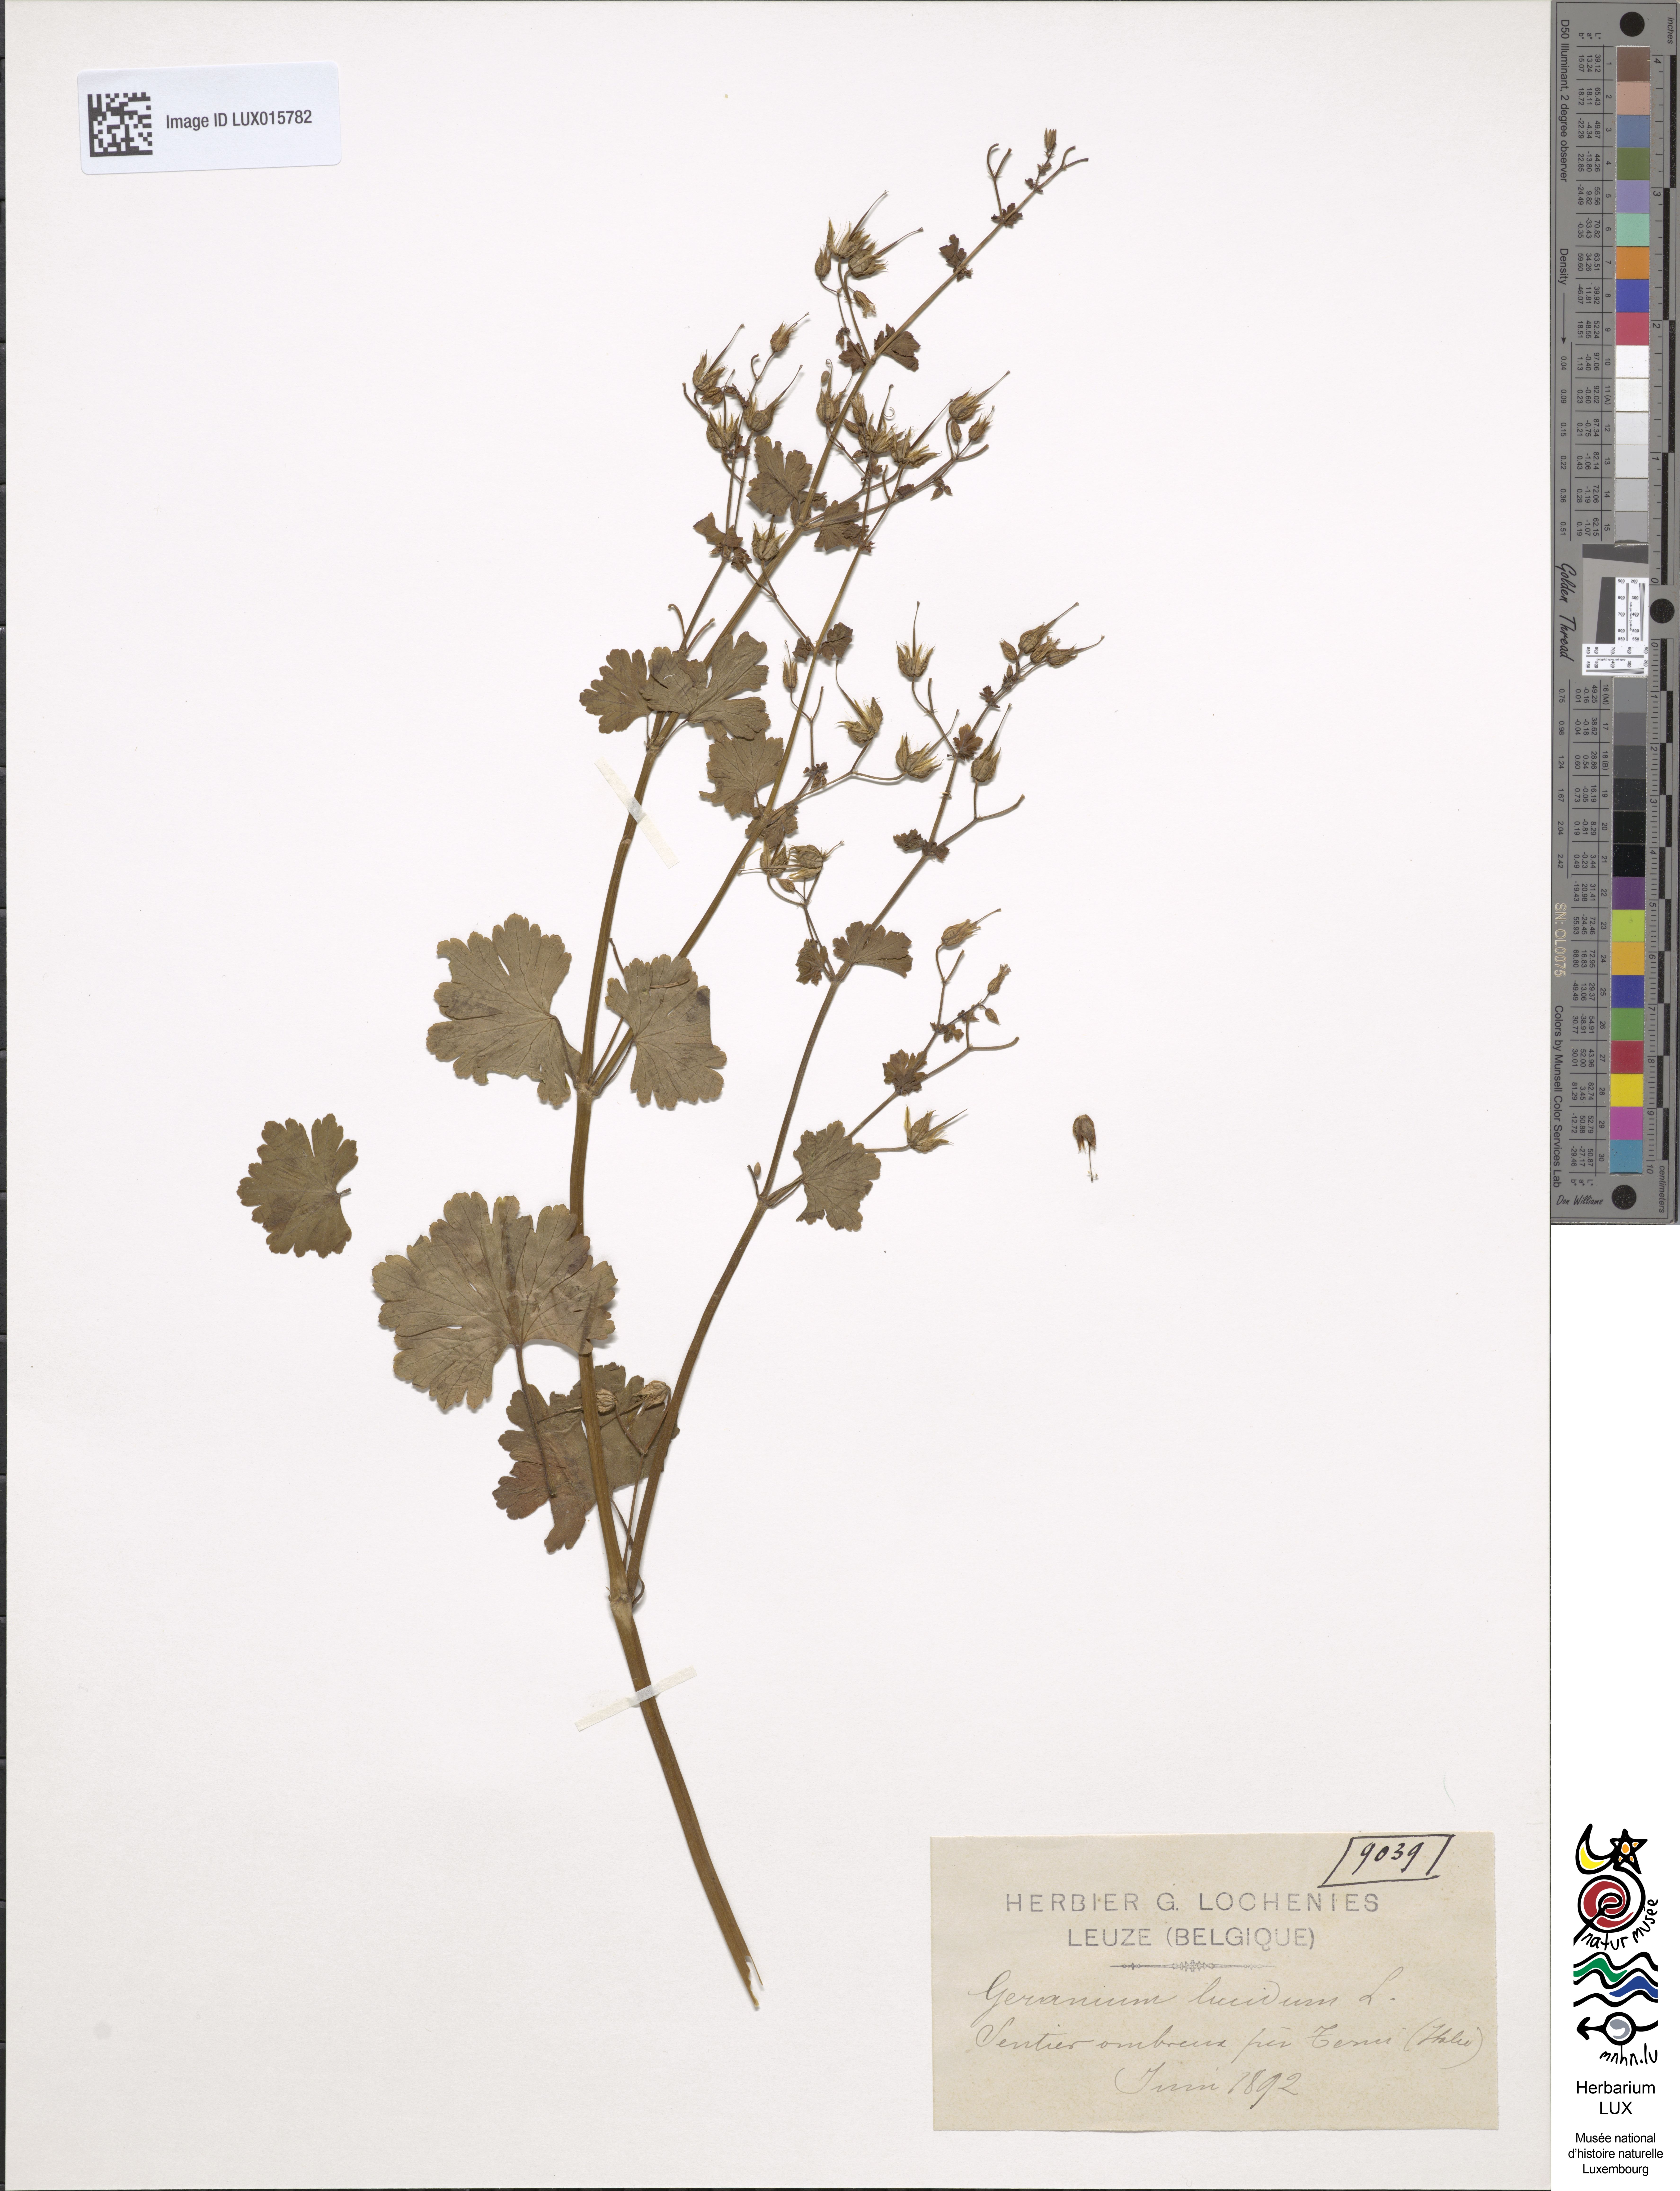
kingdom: Plantae
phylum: Tracheophyta
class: Magnoliopsida
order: Geraniales
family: Geraniaceae
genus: Geranium
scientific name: Geranium lucidum
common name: Shining crane's-bill
